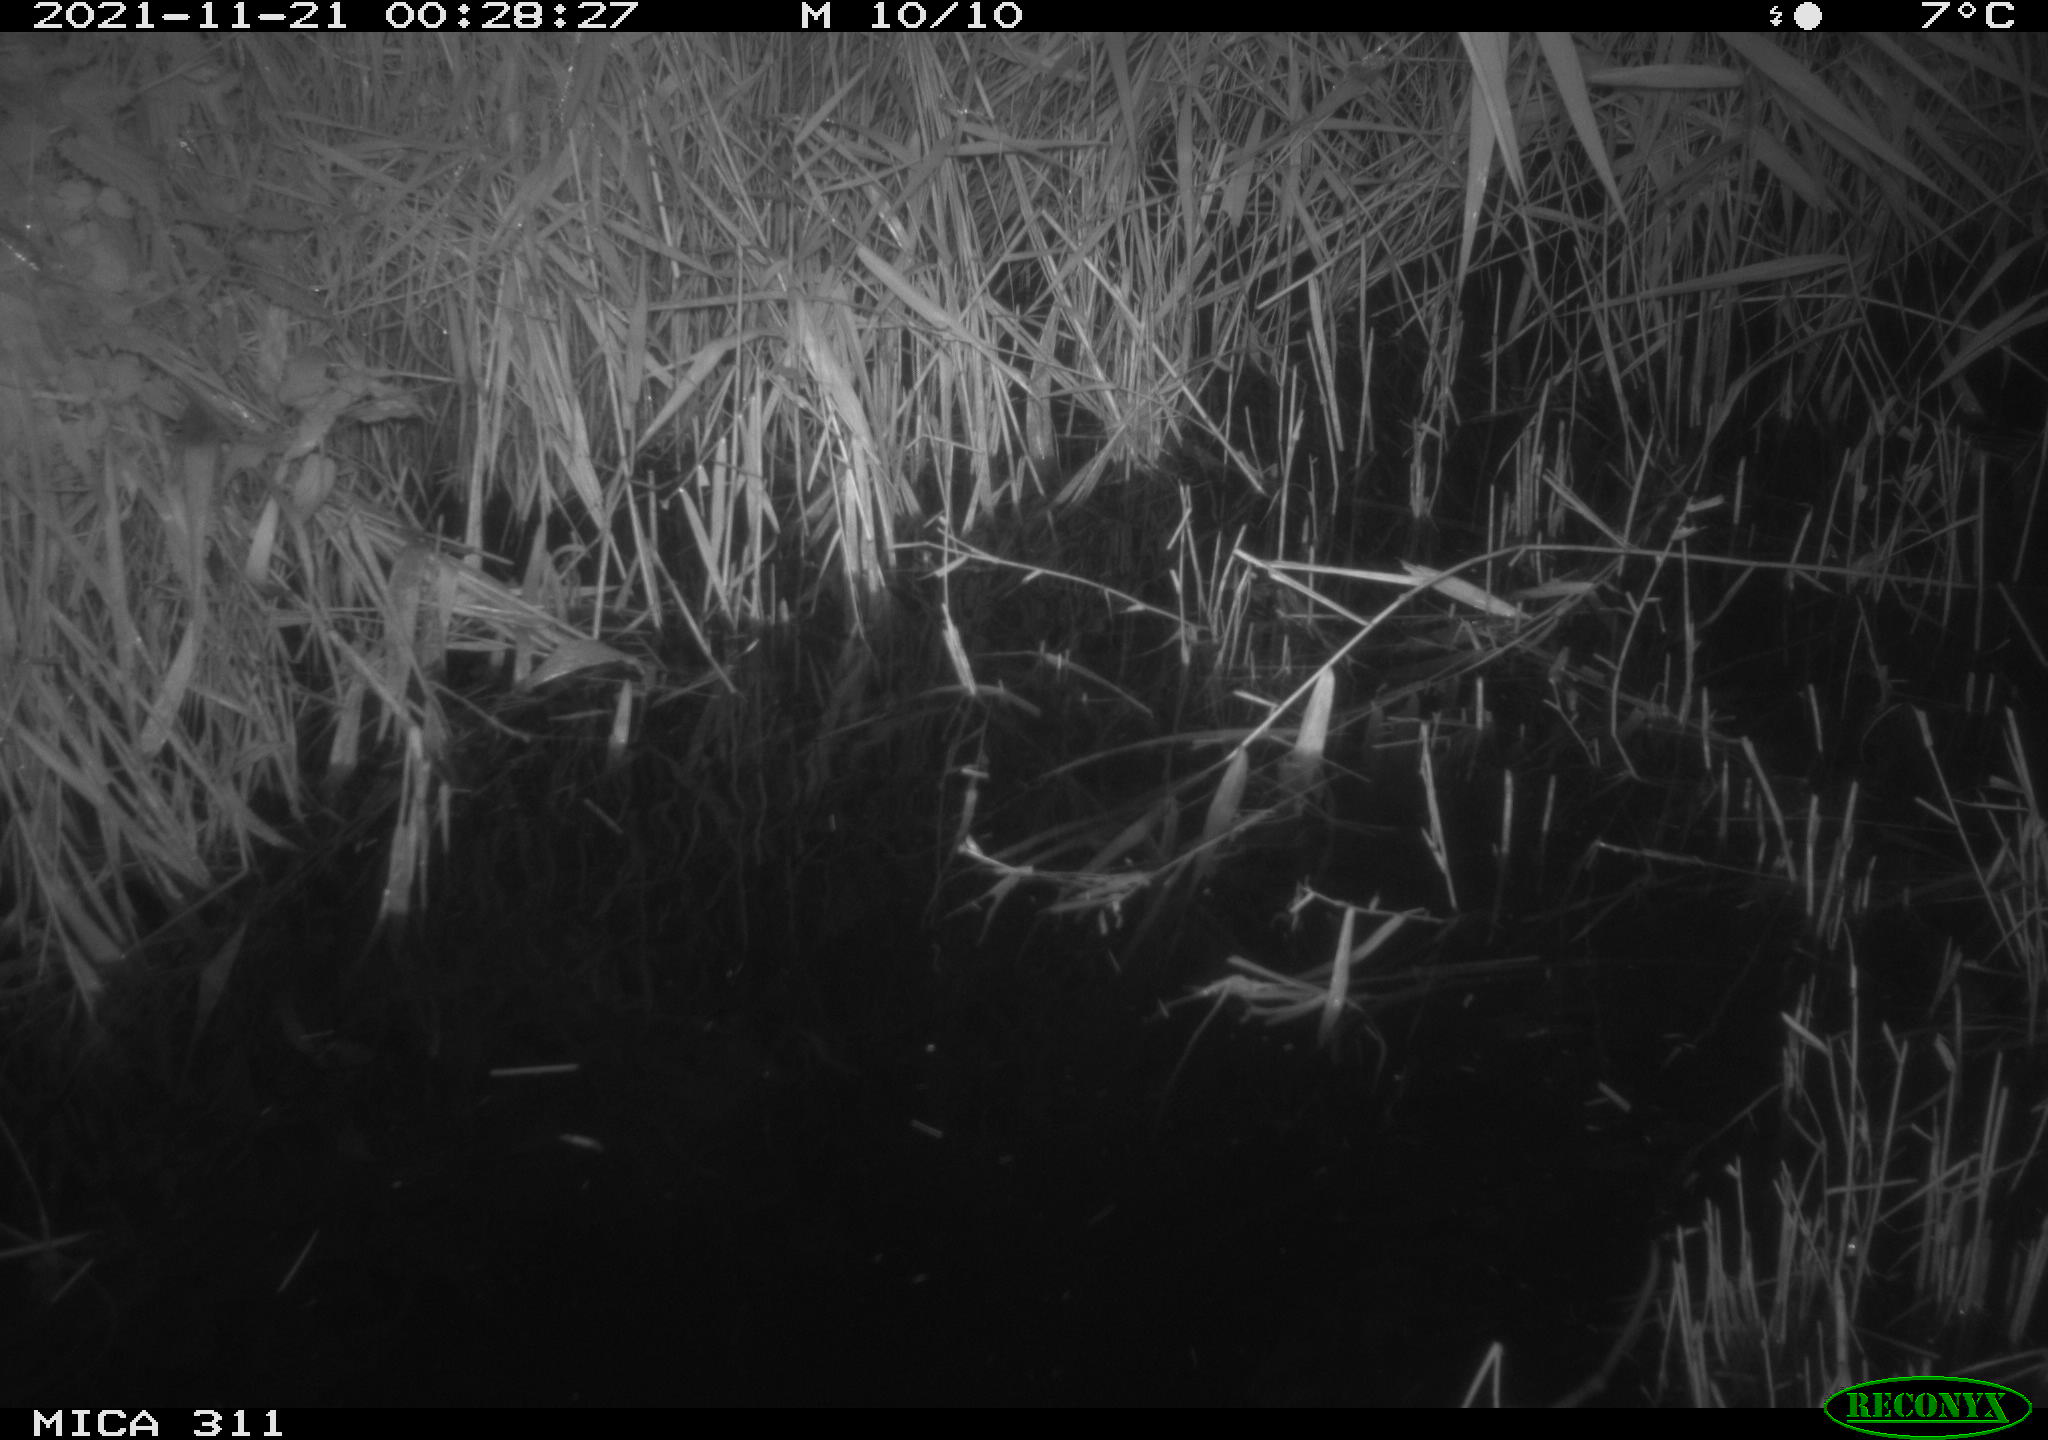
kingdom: Animalia
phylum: Chordata
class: Mammalia
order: Rodentia
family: Muridae
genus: Rattus
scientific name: Rattus norvegicus
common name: Brown rat
